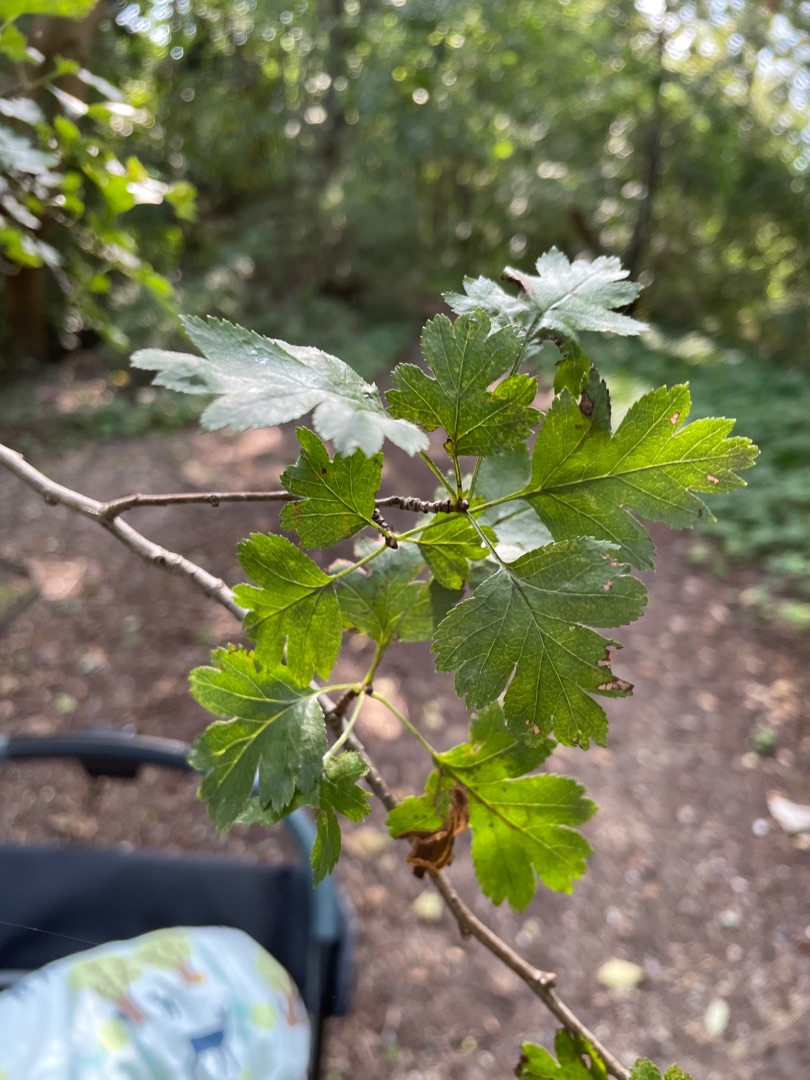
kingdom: Plantae
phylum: Tracheophyta
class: Magnoliopsida
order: Rosales
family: Rosaceae
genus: Crataegus
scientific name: Crataegus subsphaerica
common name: Engriflet hvidtjørn × koral-hvidtjørn
